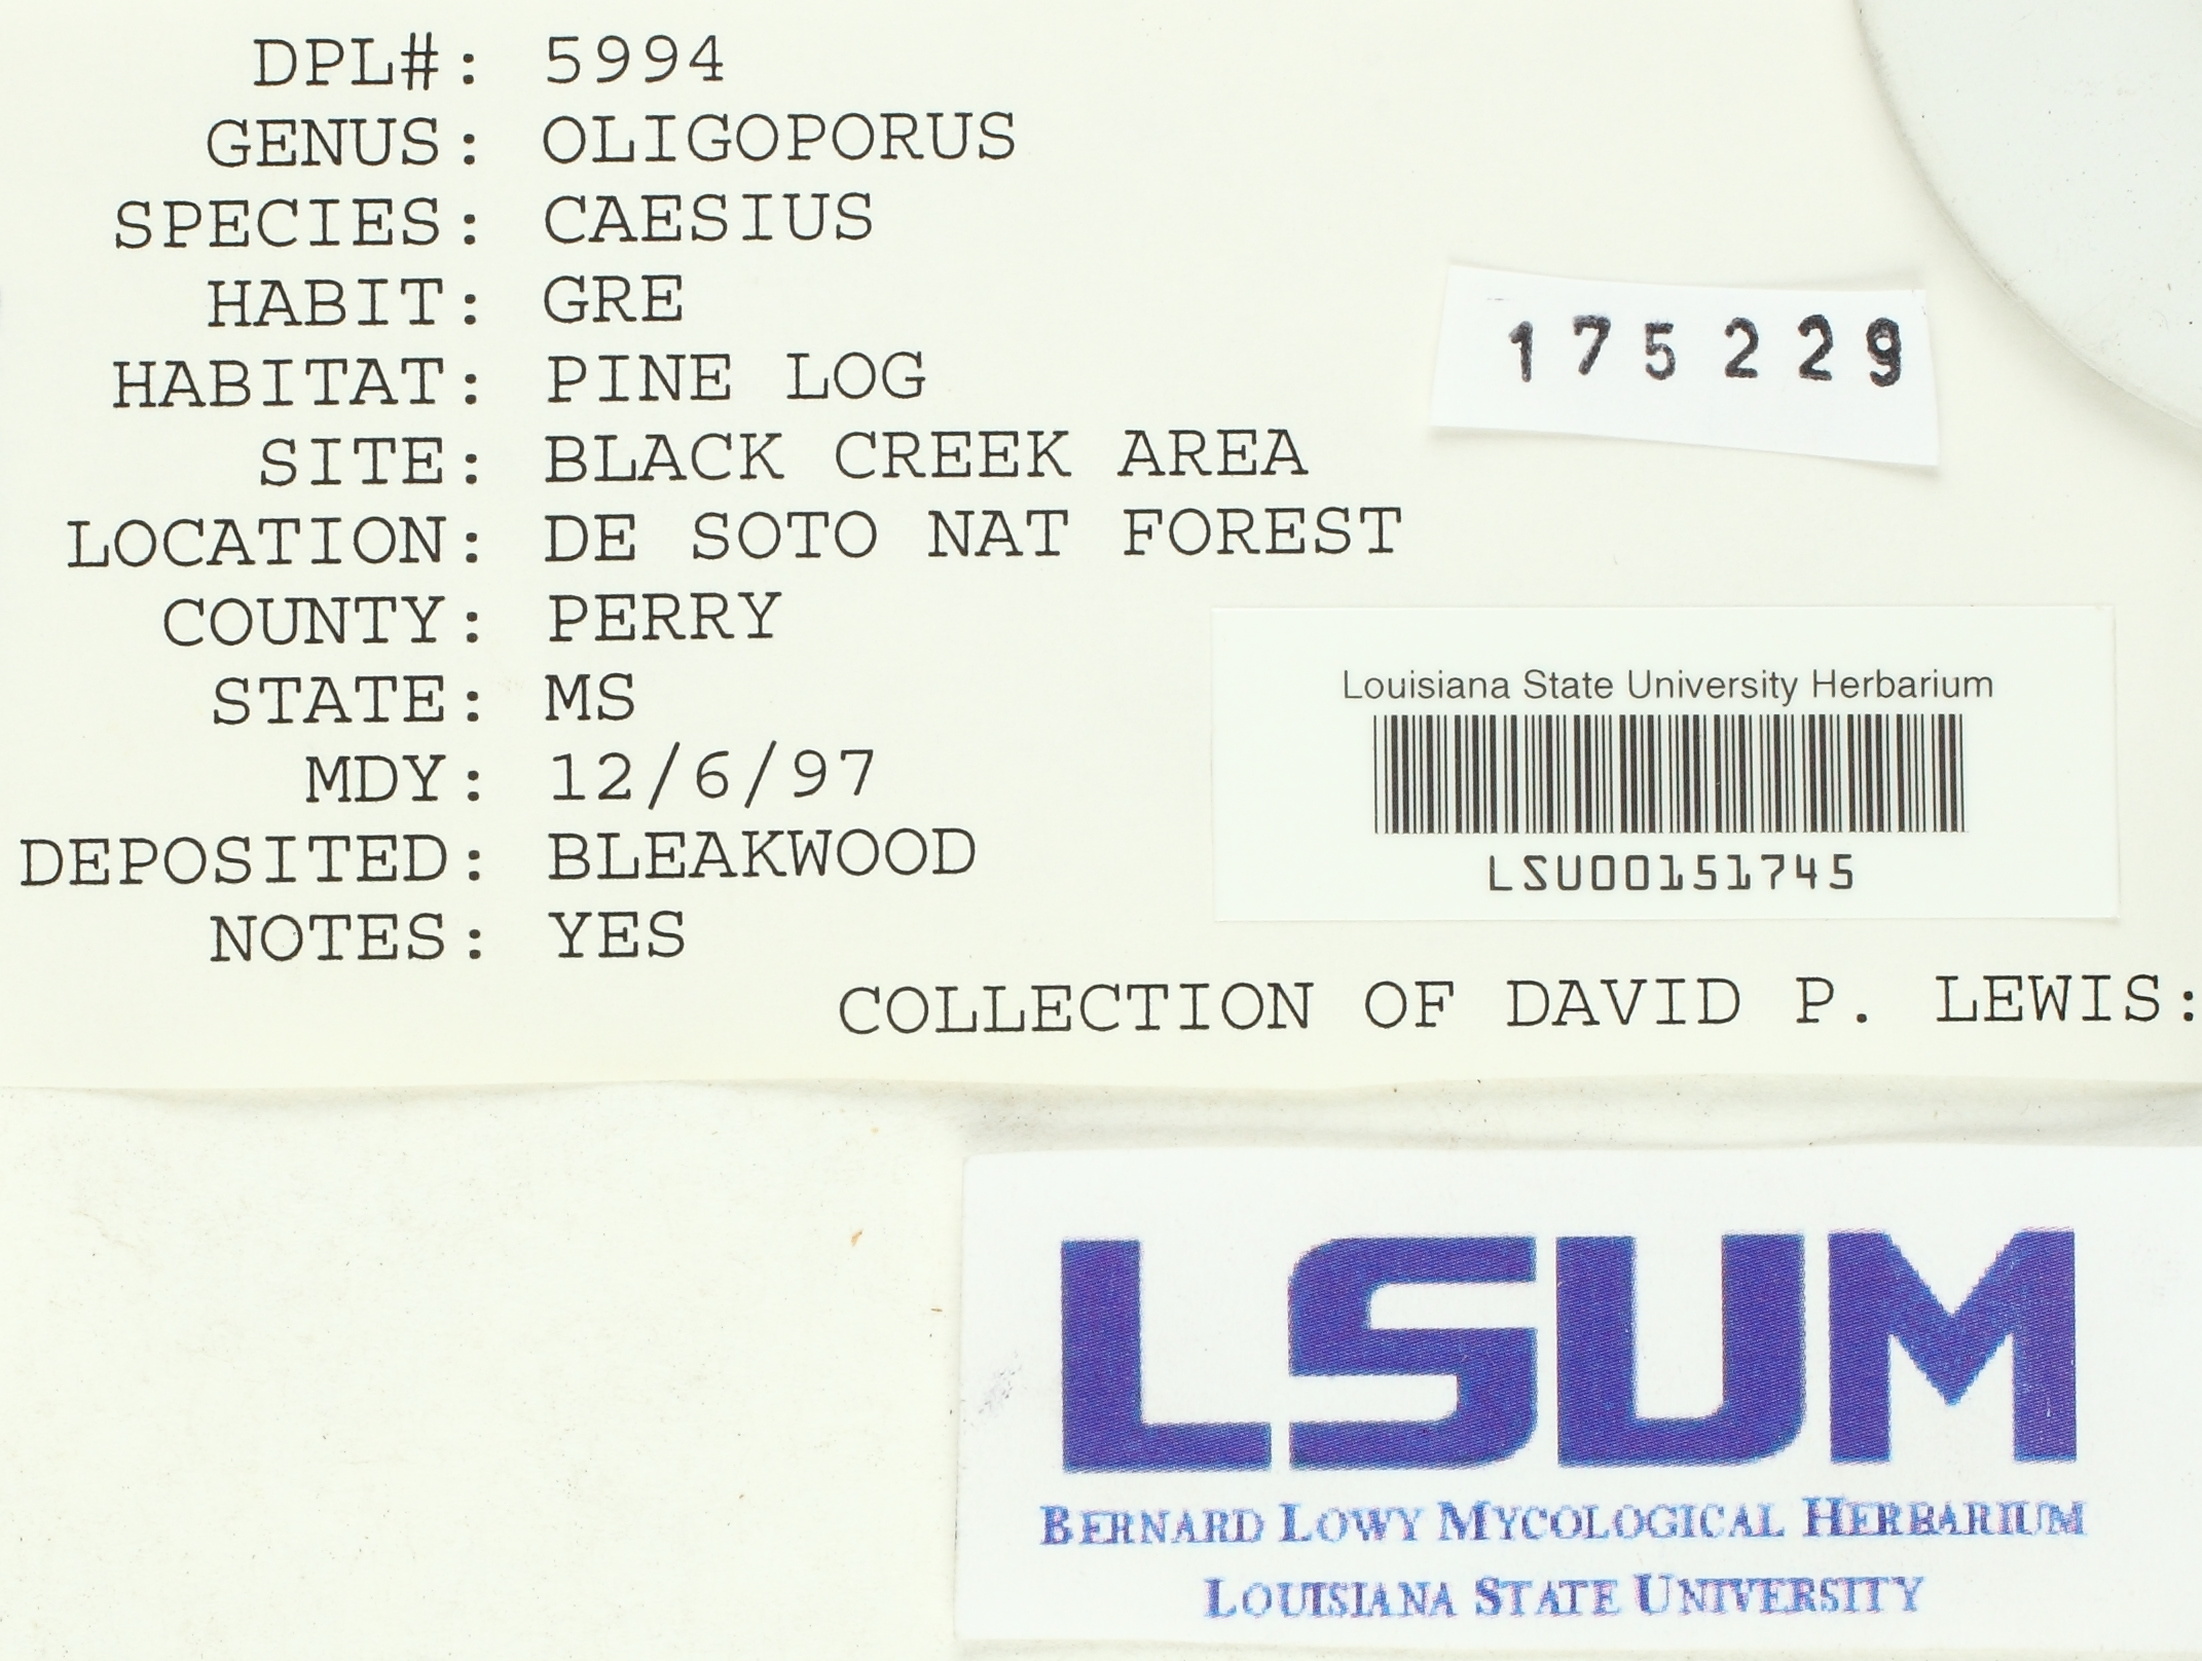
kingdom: Fungi
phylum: Basidiomycota
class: Agaricomycetes
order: Polyporales
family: Polyporaceae
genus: Cyanosporus
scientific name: Cyanosporus caesius
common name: Blue cheese polypore
